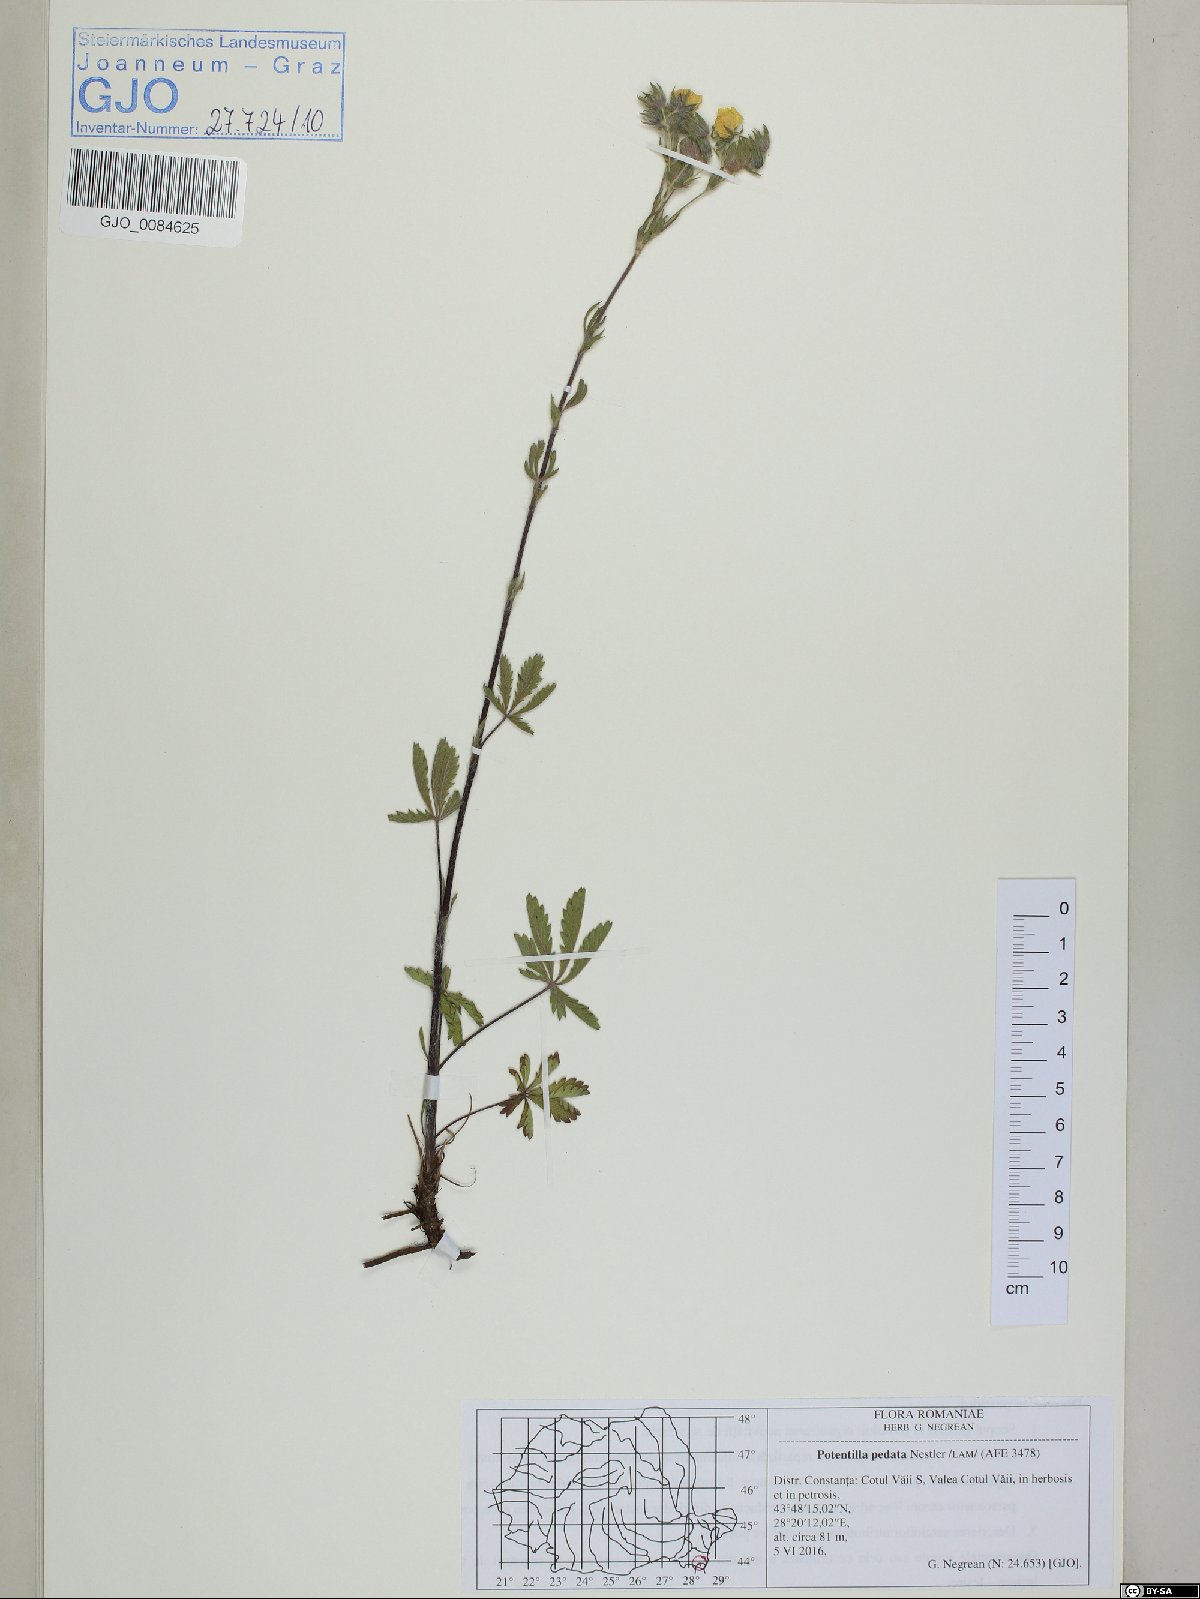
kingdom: Plantae
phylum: Tracheophyta
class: Magnoliopsida
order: Rosales
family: Rosaceae
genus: Potentilla
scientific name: Potentilla pedata
